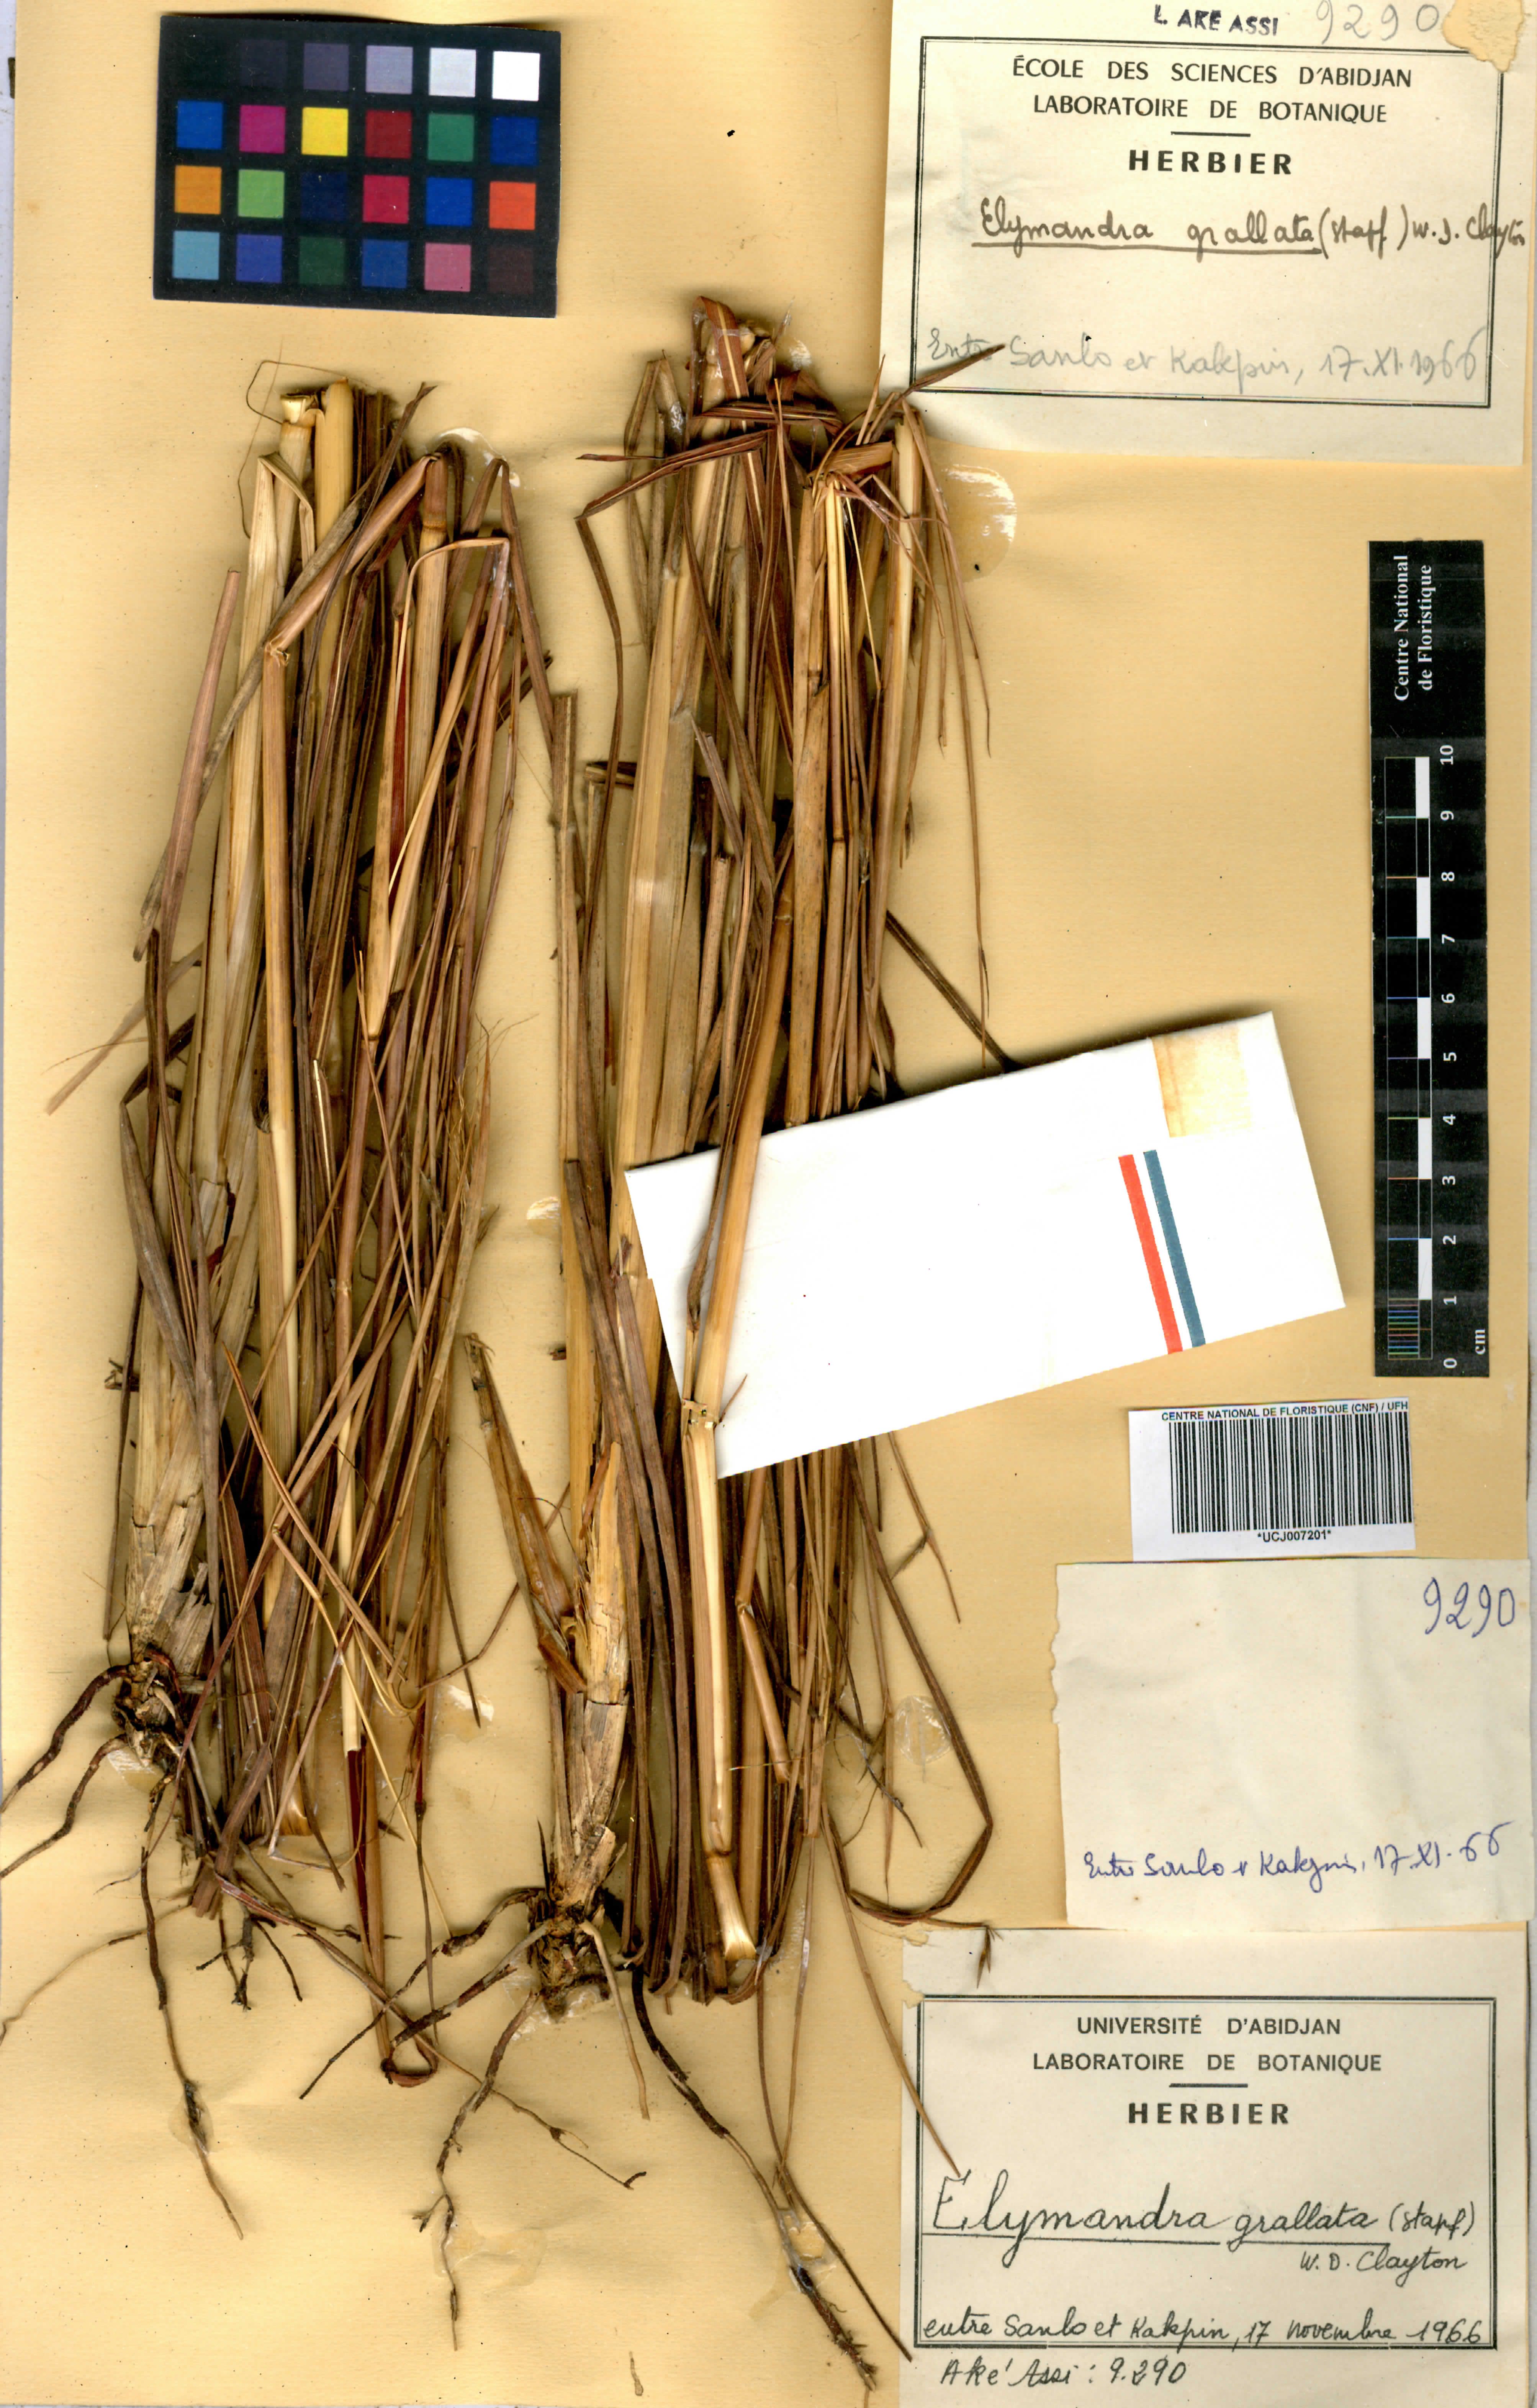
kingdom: Plantae
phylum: Tracheophyta
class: Liliopsida
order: Poales
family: Poaceae
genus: Elymandra
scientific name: Elymandra grallata
